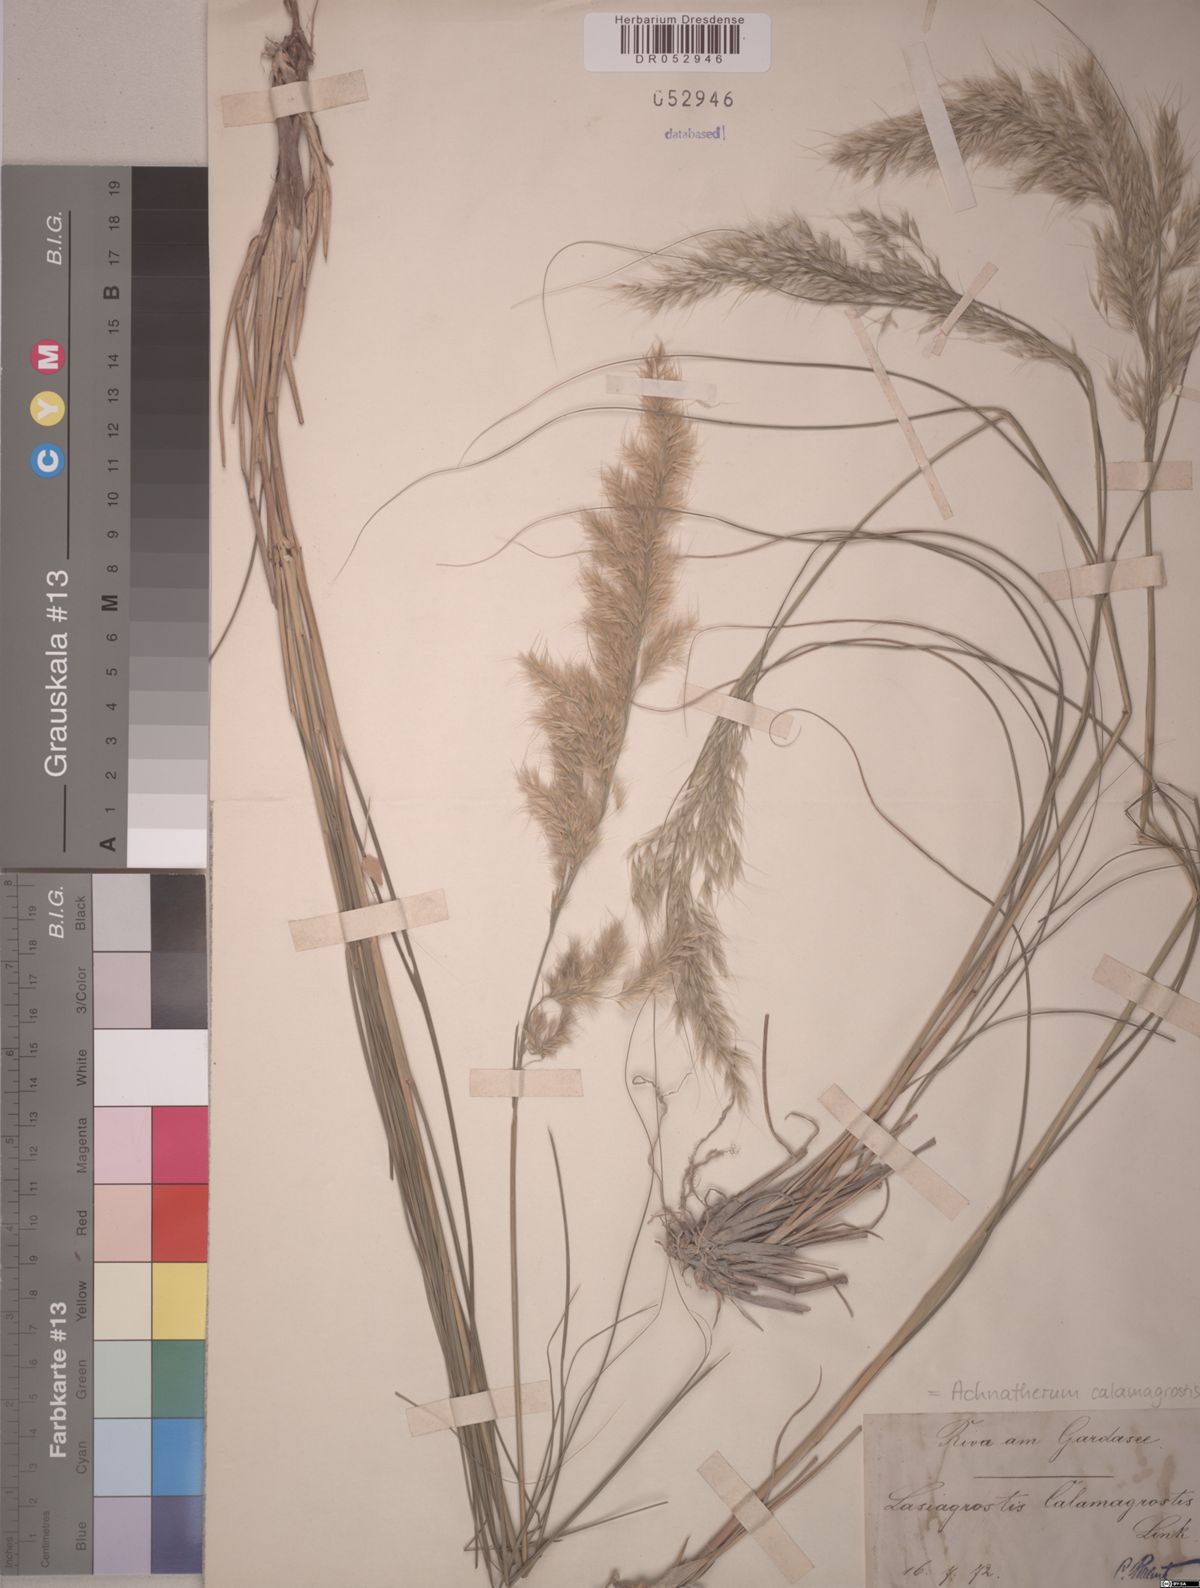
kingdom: Plantae
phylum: Tracheophyta
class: Liliopsida
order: Poales
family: Poaceae
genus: Achnatherum
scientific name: Achnatherum calamagrostis
